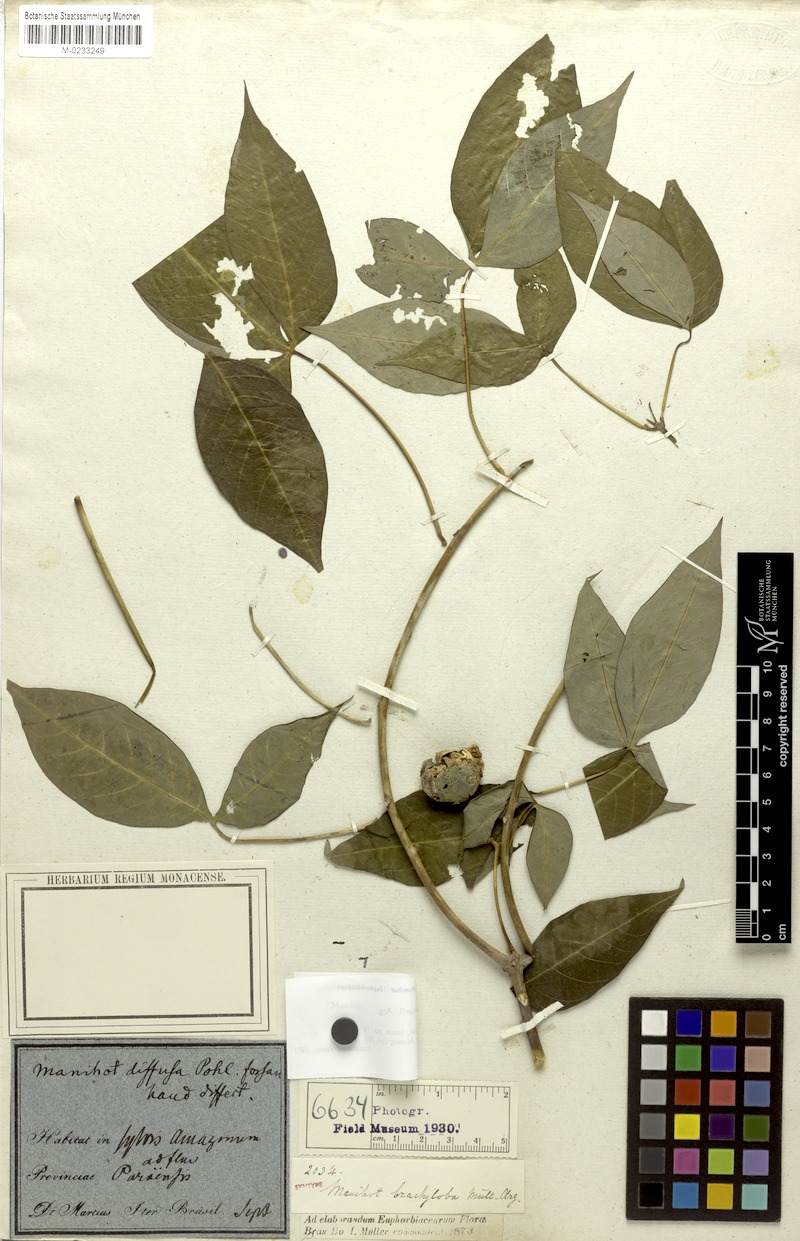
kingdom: Plantae
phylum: Tracheophyta
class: Magnoliopsida
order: Malpighiales
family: Euphorbiaceae
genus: Manihot
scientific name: Manihot brachyloba
